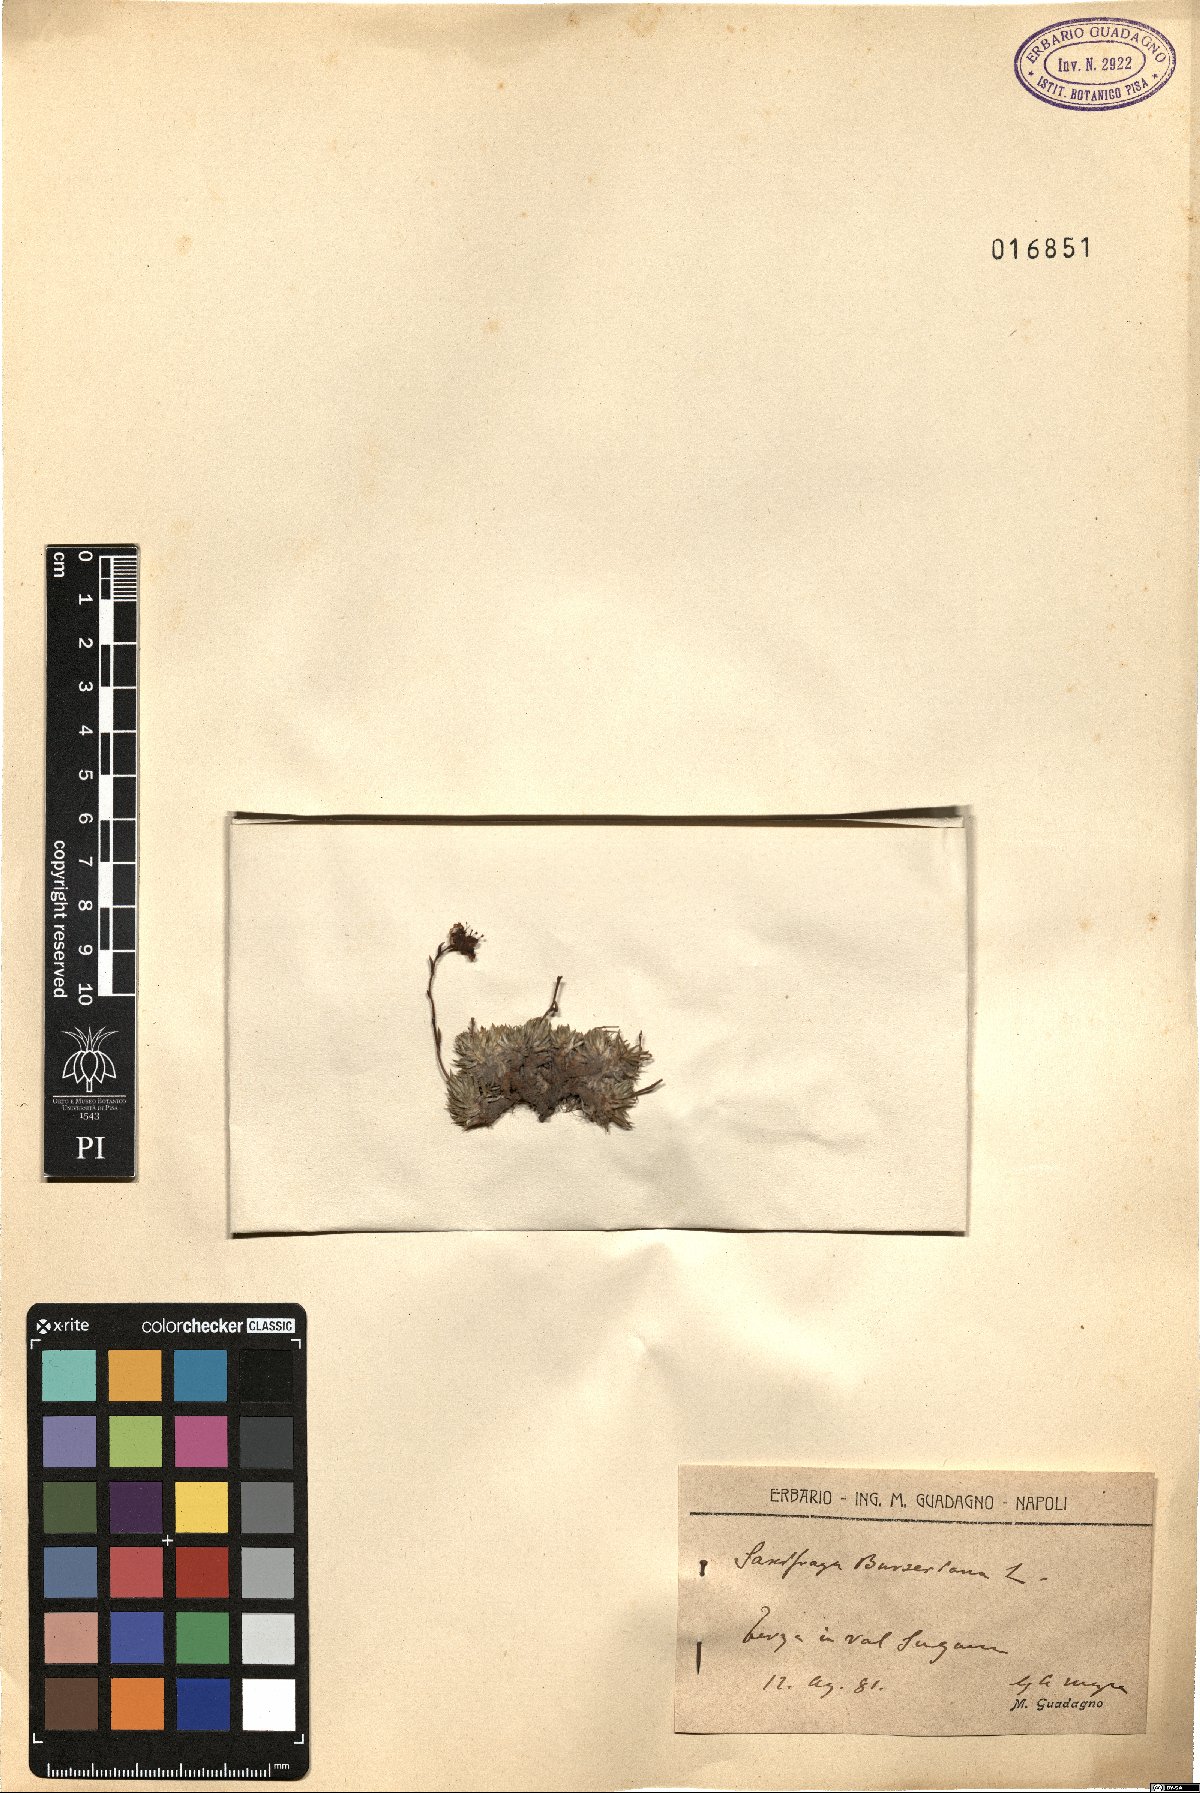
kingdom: Plantae
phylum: Tracheophyta
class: Magnoliopsida
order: Saxifragales
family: Saxifragaceae
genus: Saxifraga
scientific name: Saxifraga burseriana
